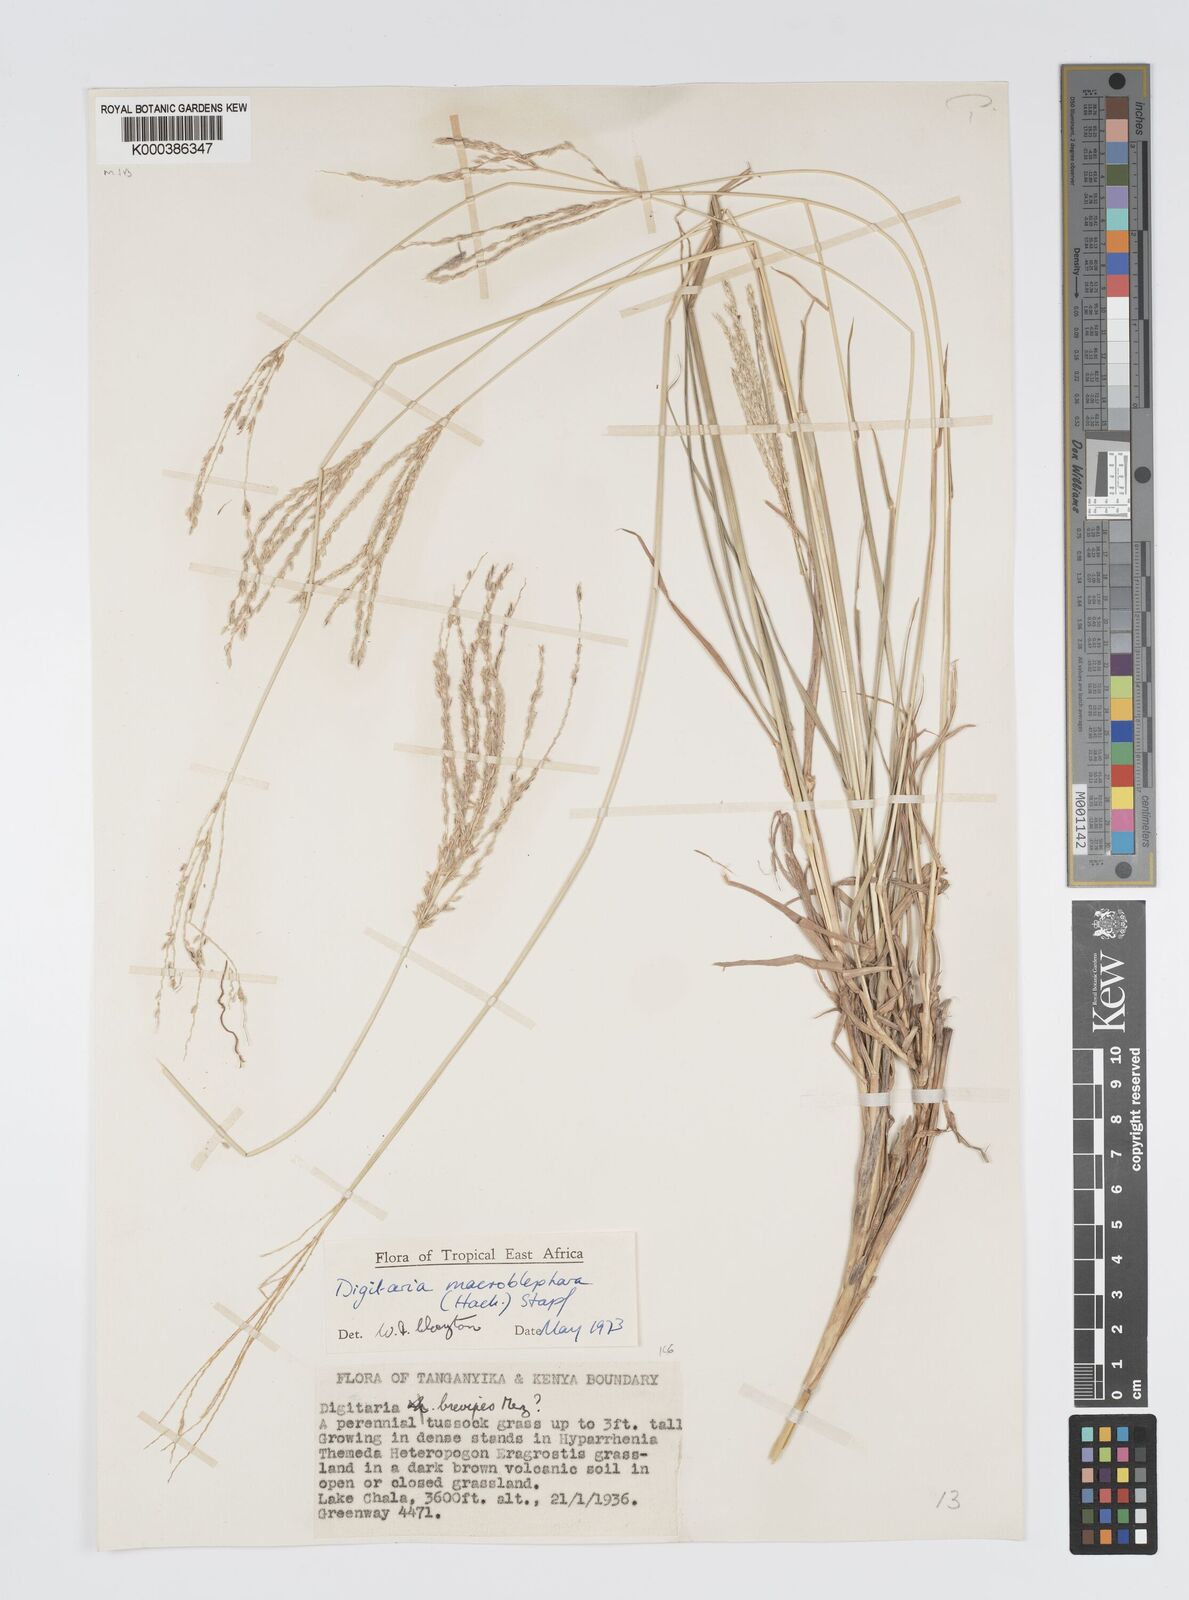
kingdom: Plantae
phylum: Tracheophyta
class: Liliopsida
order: Poales
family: Poaceae
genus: Digitaria
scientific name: Digitaria macroblephara
